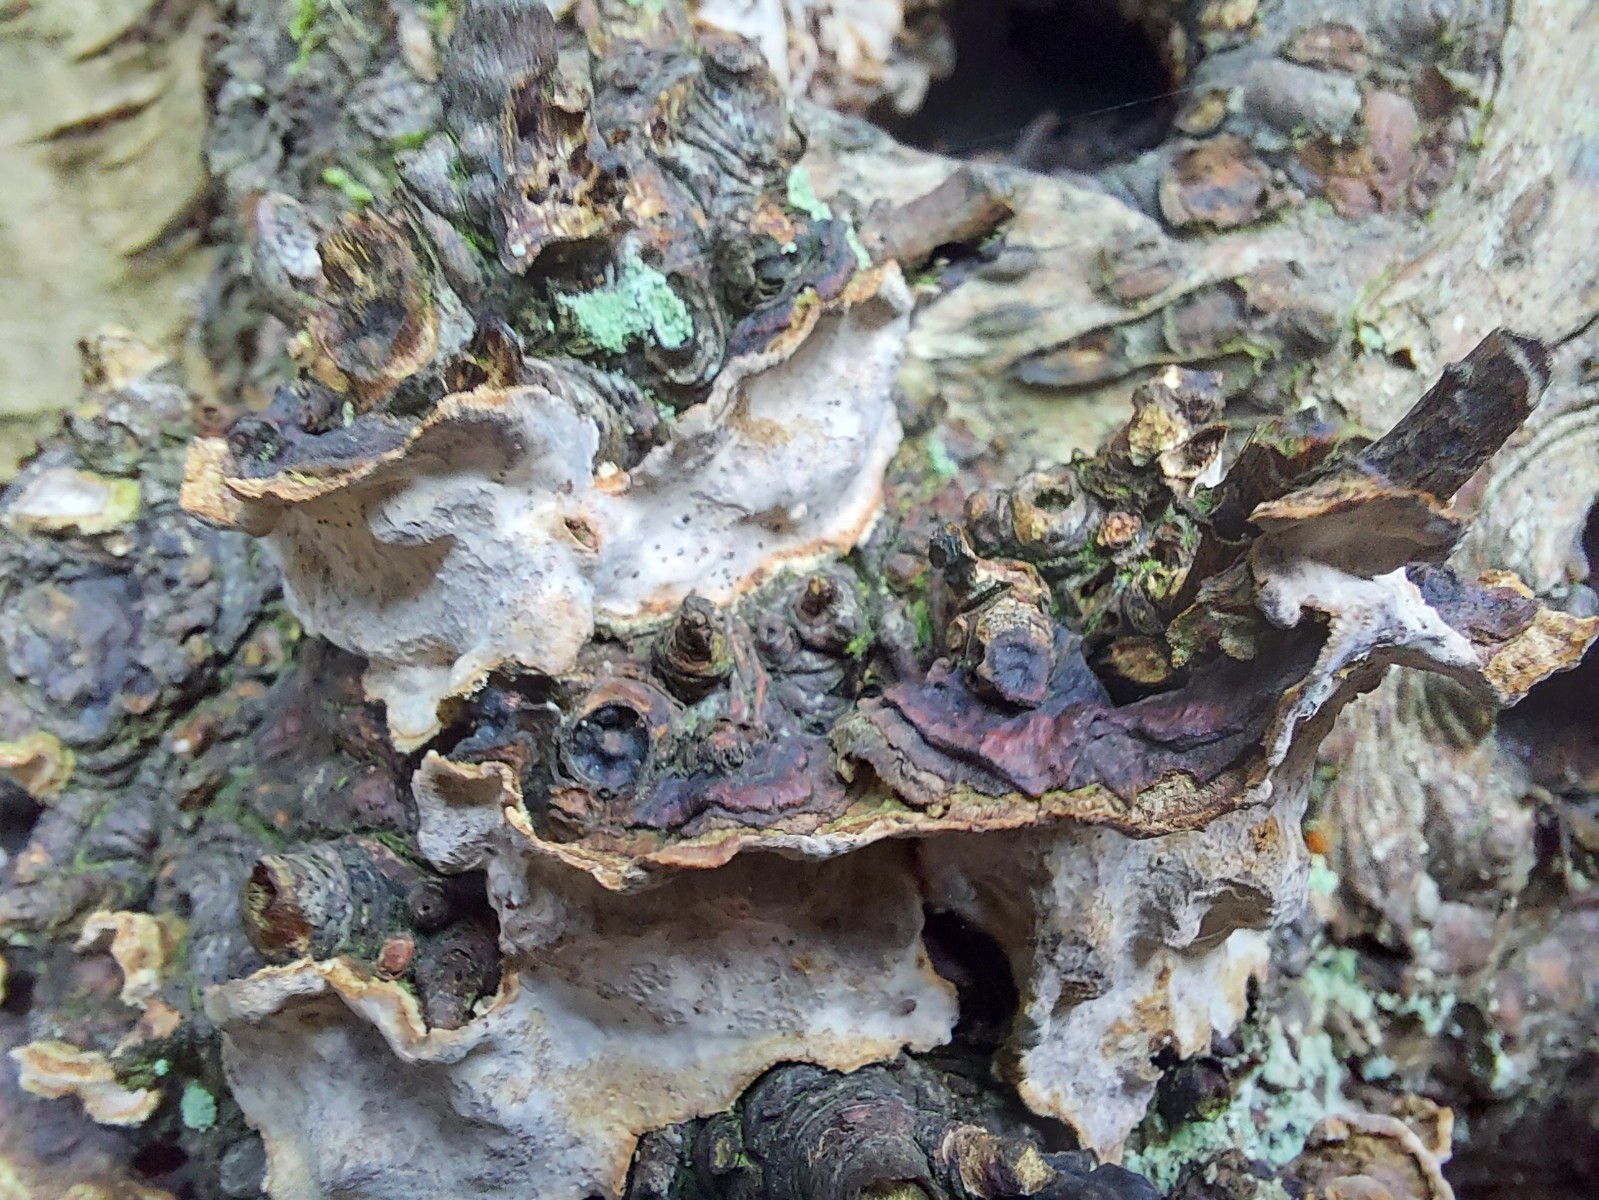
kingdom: Fungi
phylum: Basidiomycota
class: Agaricomycetes
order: Russulales
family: Stereaceae
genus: Stereum
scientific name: Stereum rugosum
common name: rynket lædersvamp
